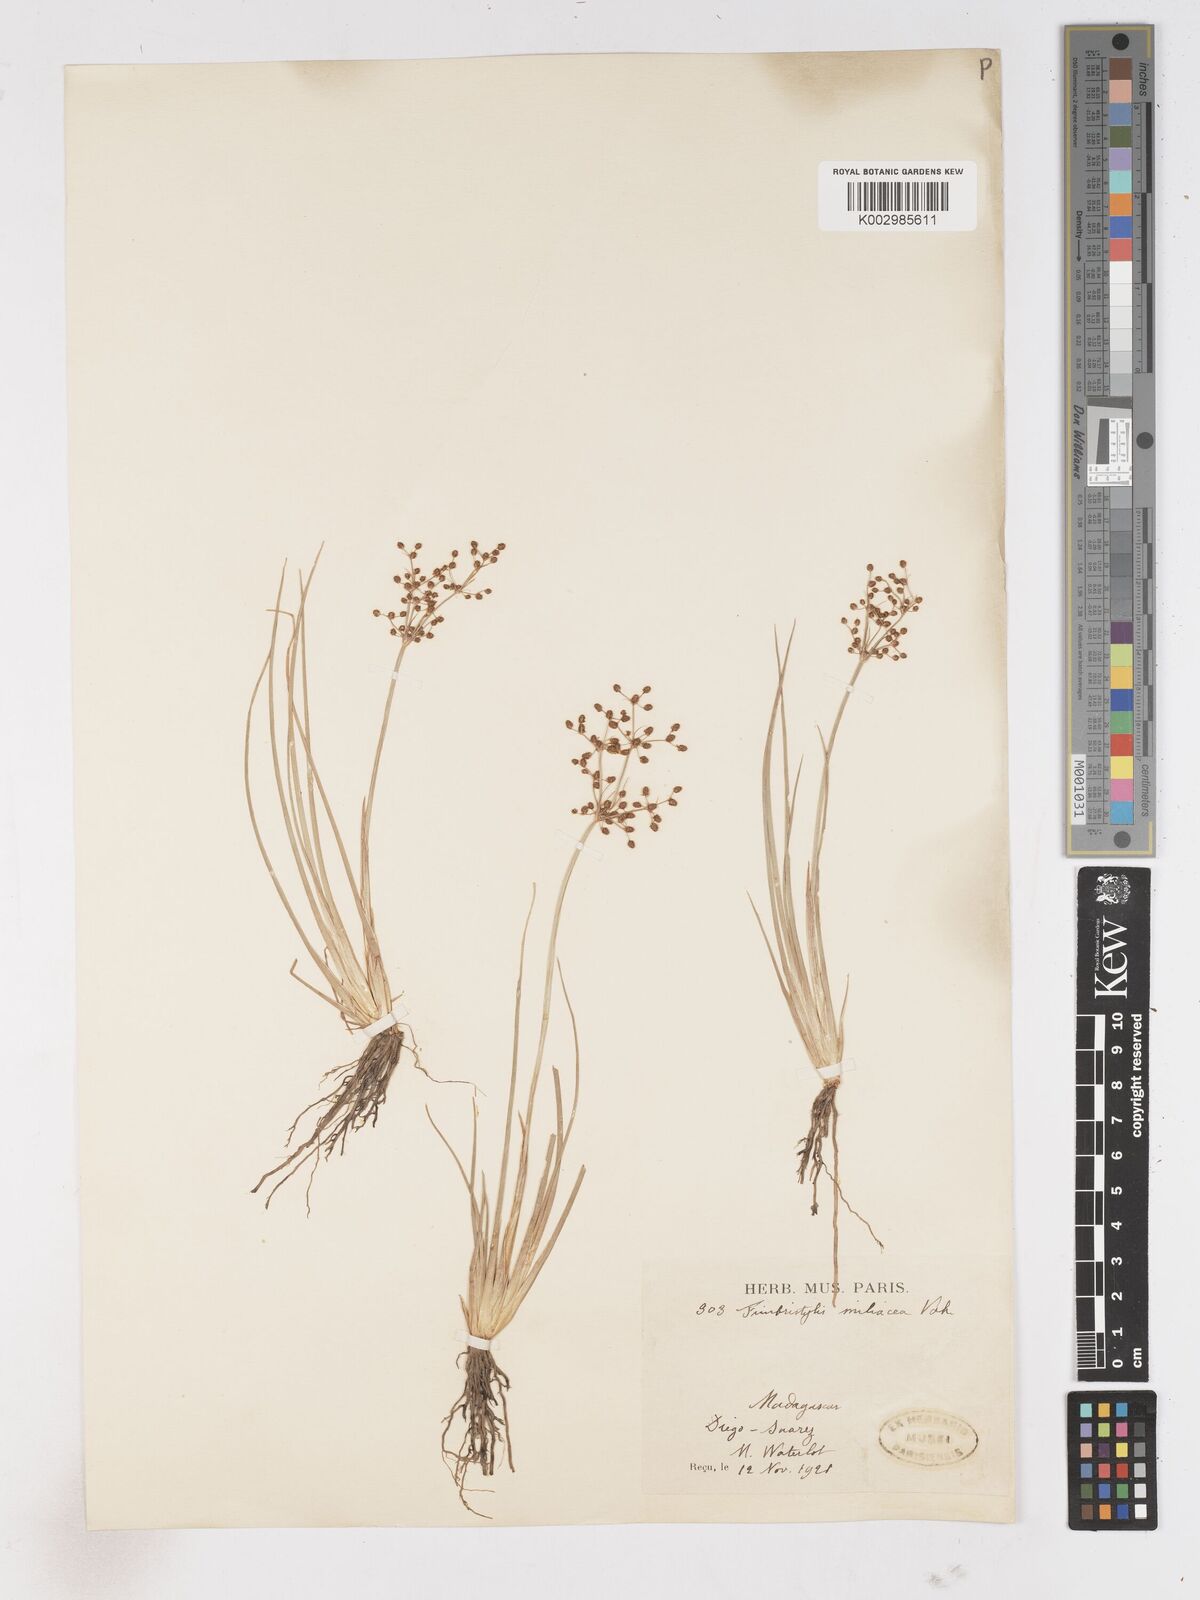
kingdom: Plantae
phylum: Tracheophyta
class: Liliopsida
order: Poales
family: Cyperaceae
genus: Fimbristylis
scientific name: Fimbristylis littoralis
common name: Fimbry
